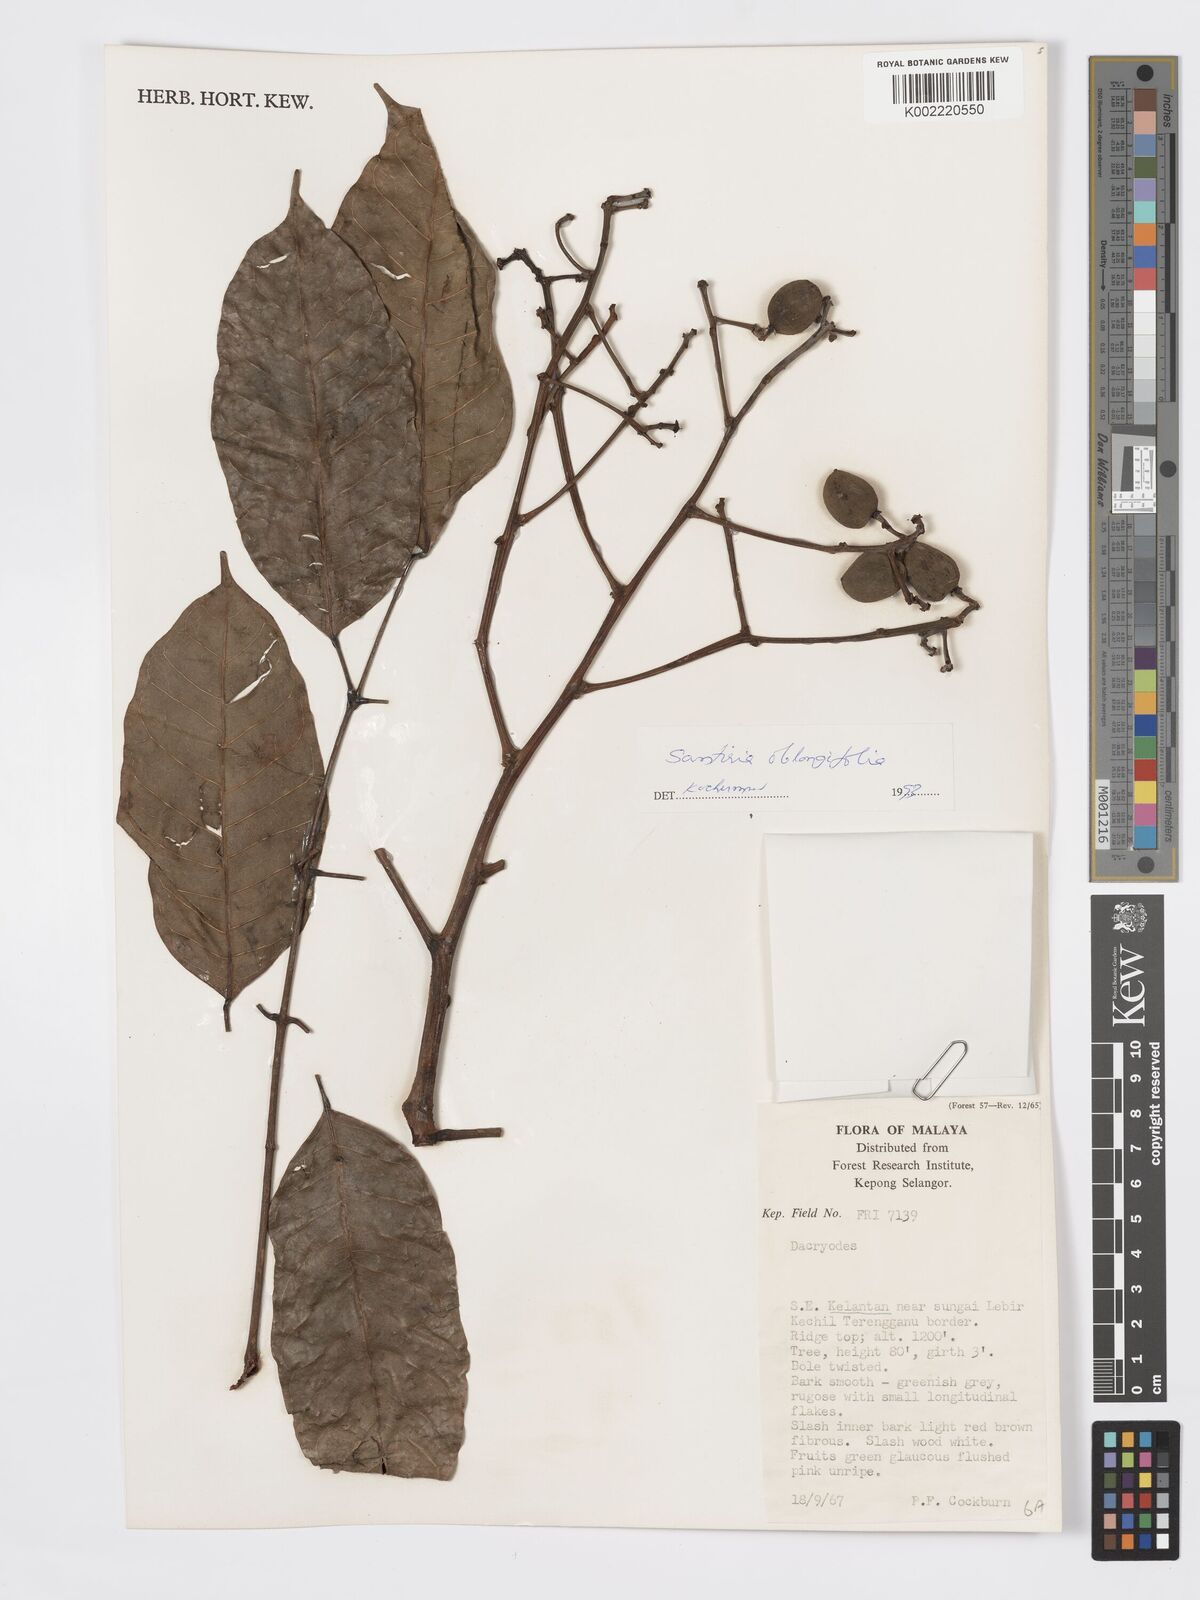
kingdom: Plantae
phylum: Tracheophyta
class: Magnoliopsida
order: Sapindales
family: Burseraceae
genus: Santiria
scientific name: Santiria oblongifolia
